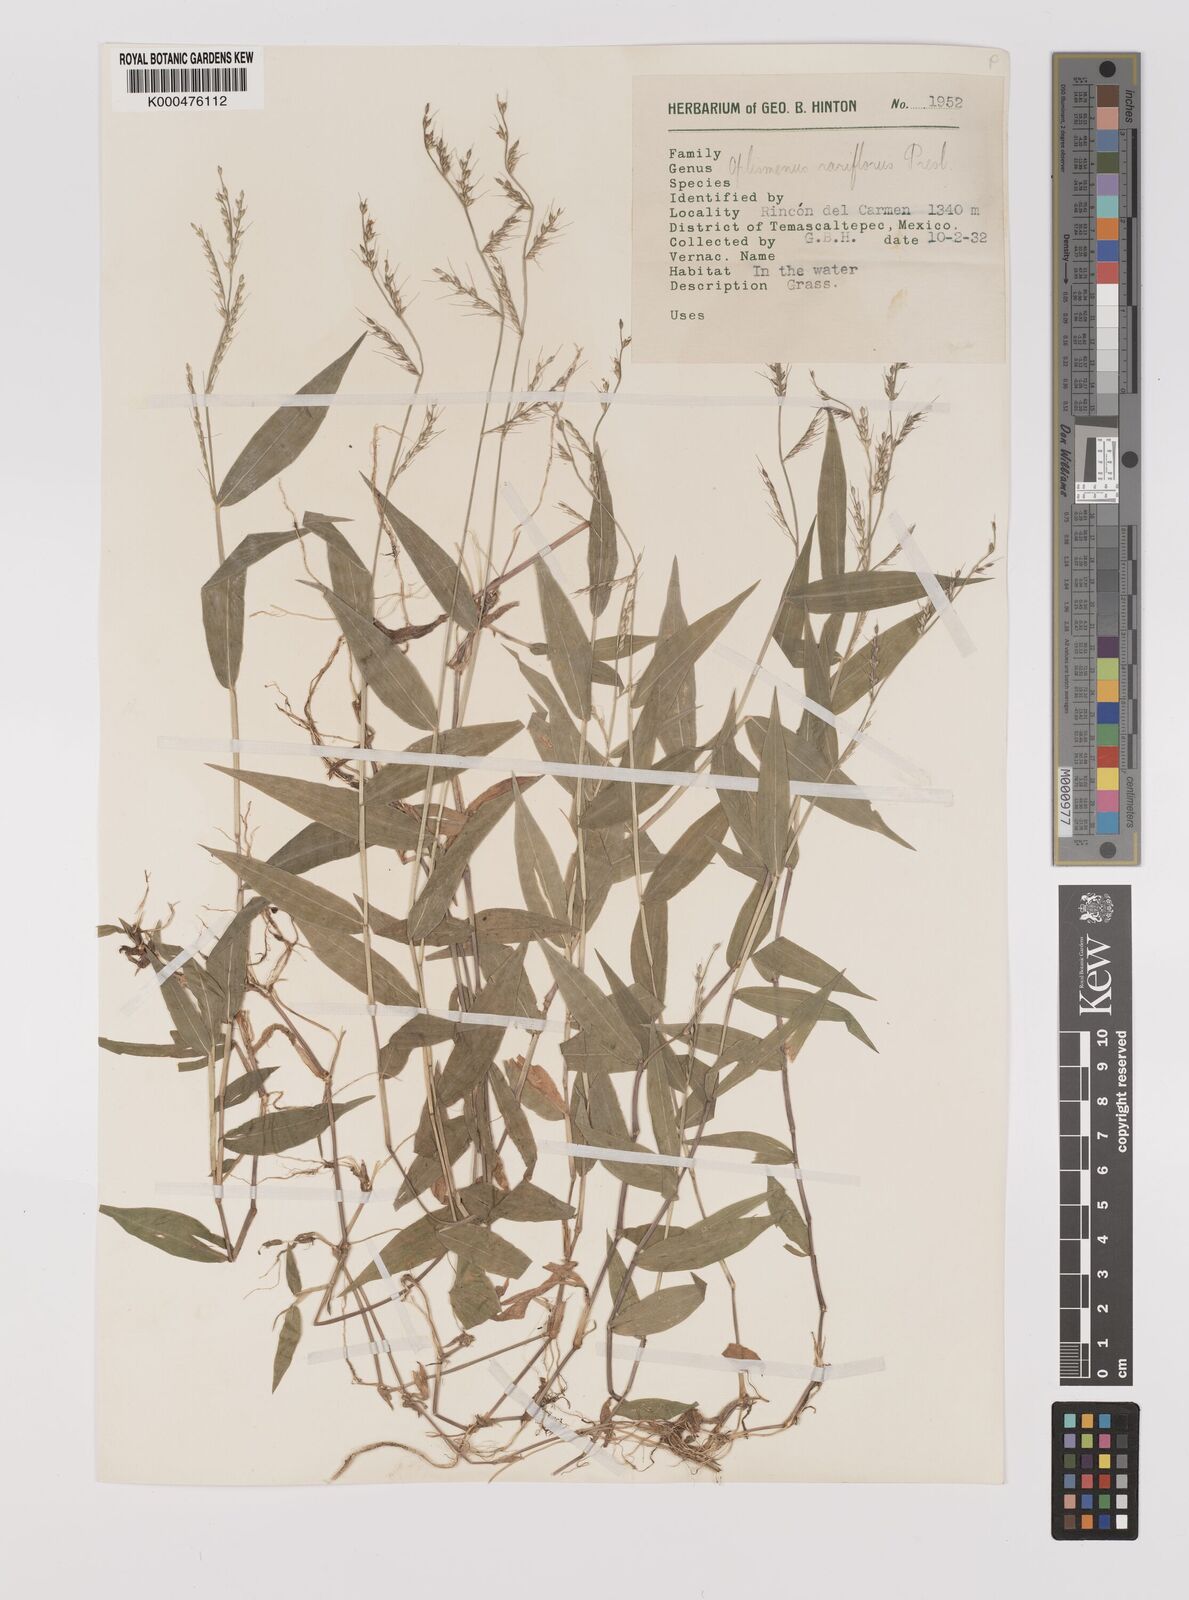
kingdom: Plantae
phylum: Tracheophyta
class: Liliopsida
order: Poales
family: Poaceae
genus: Oplismenus
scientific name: Oplismenus compositus
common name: Running mountain grass
